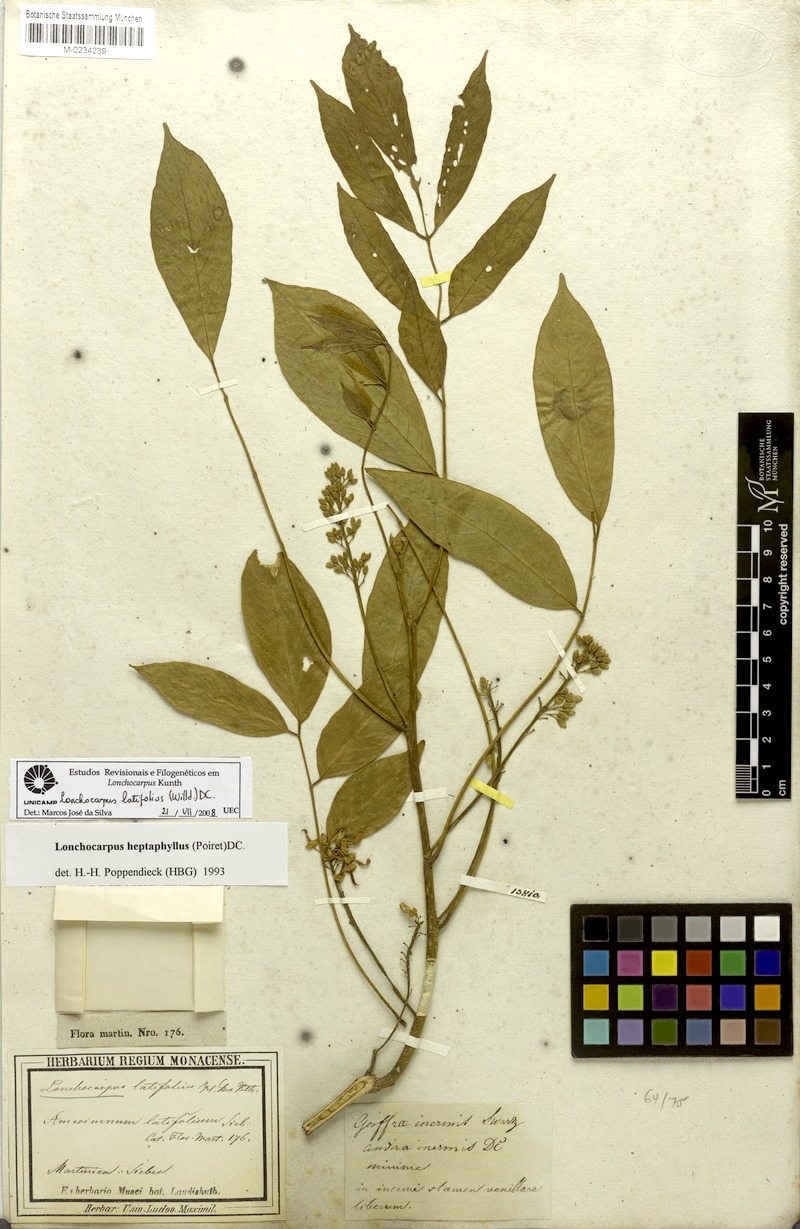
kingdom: Plantae
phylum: Tracheophyta
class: Magnoliopsida
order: Fabales
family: Fabaceae
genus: Lonchocarpus
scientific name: Lonchocarpus heptaphyllus
